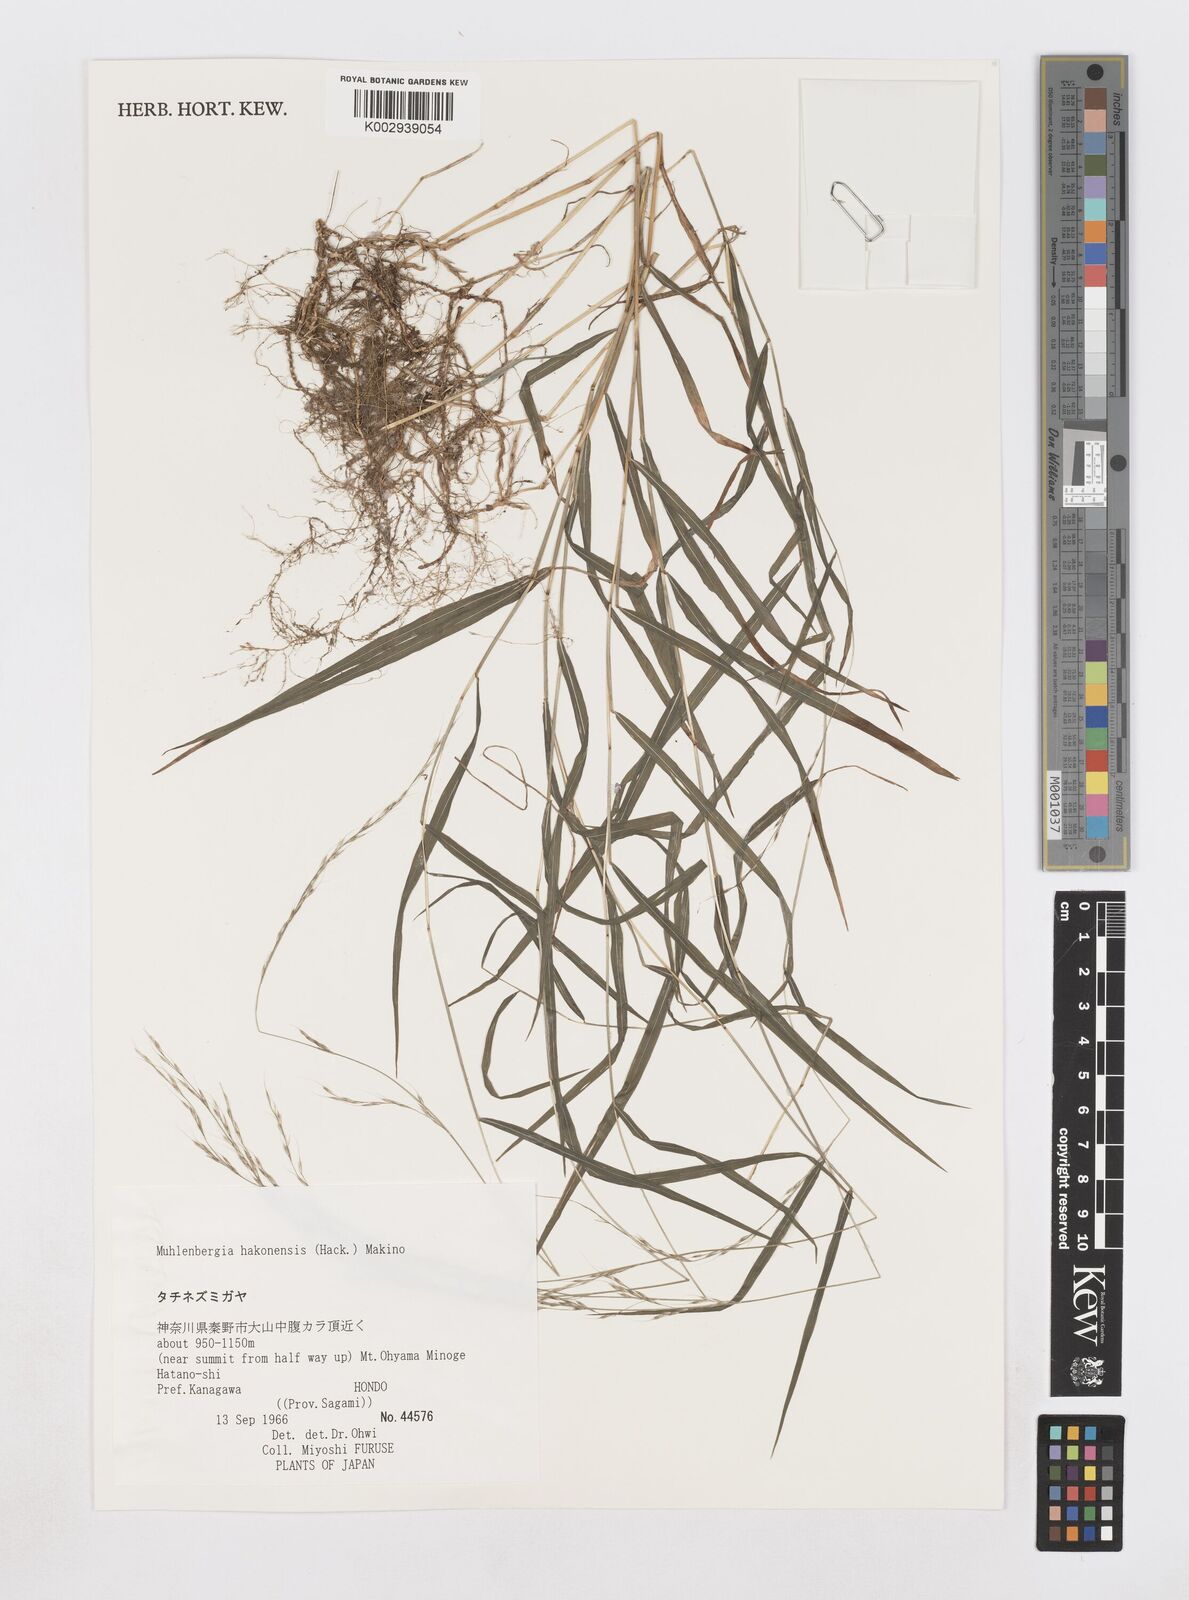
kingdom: Plantae
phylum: Tracheophyta
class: Liliopsida
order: Poales
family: Poaceae
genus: Muhlenbergia
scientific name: Muhlenbergia hakonensis
